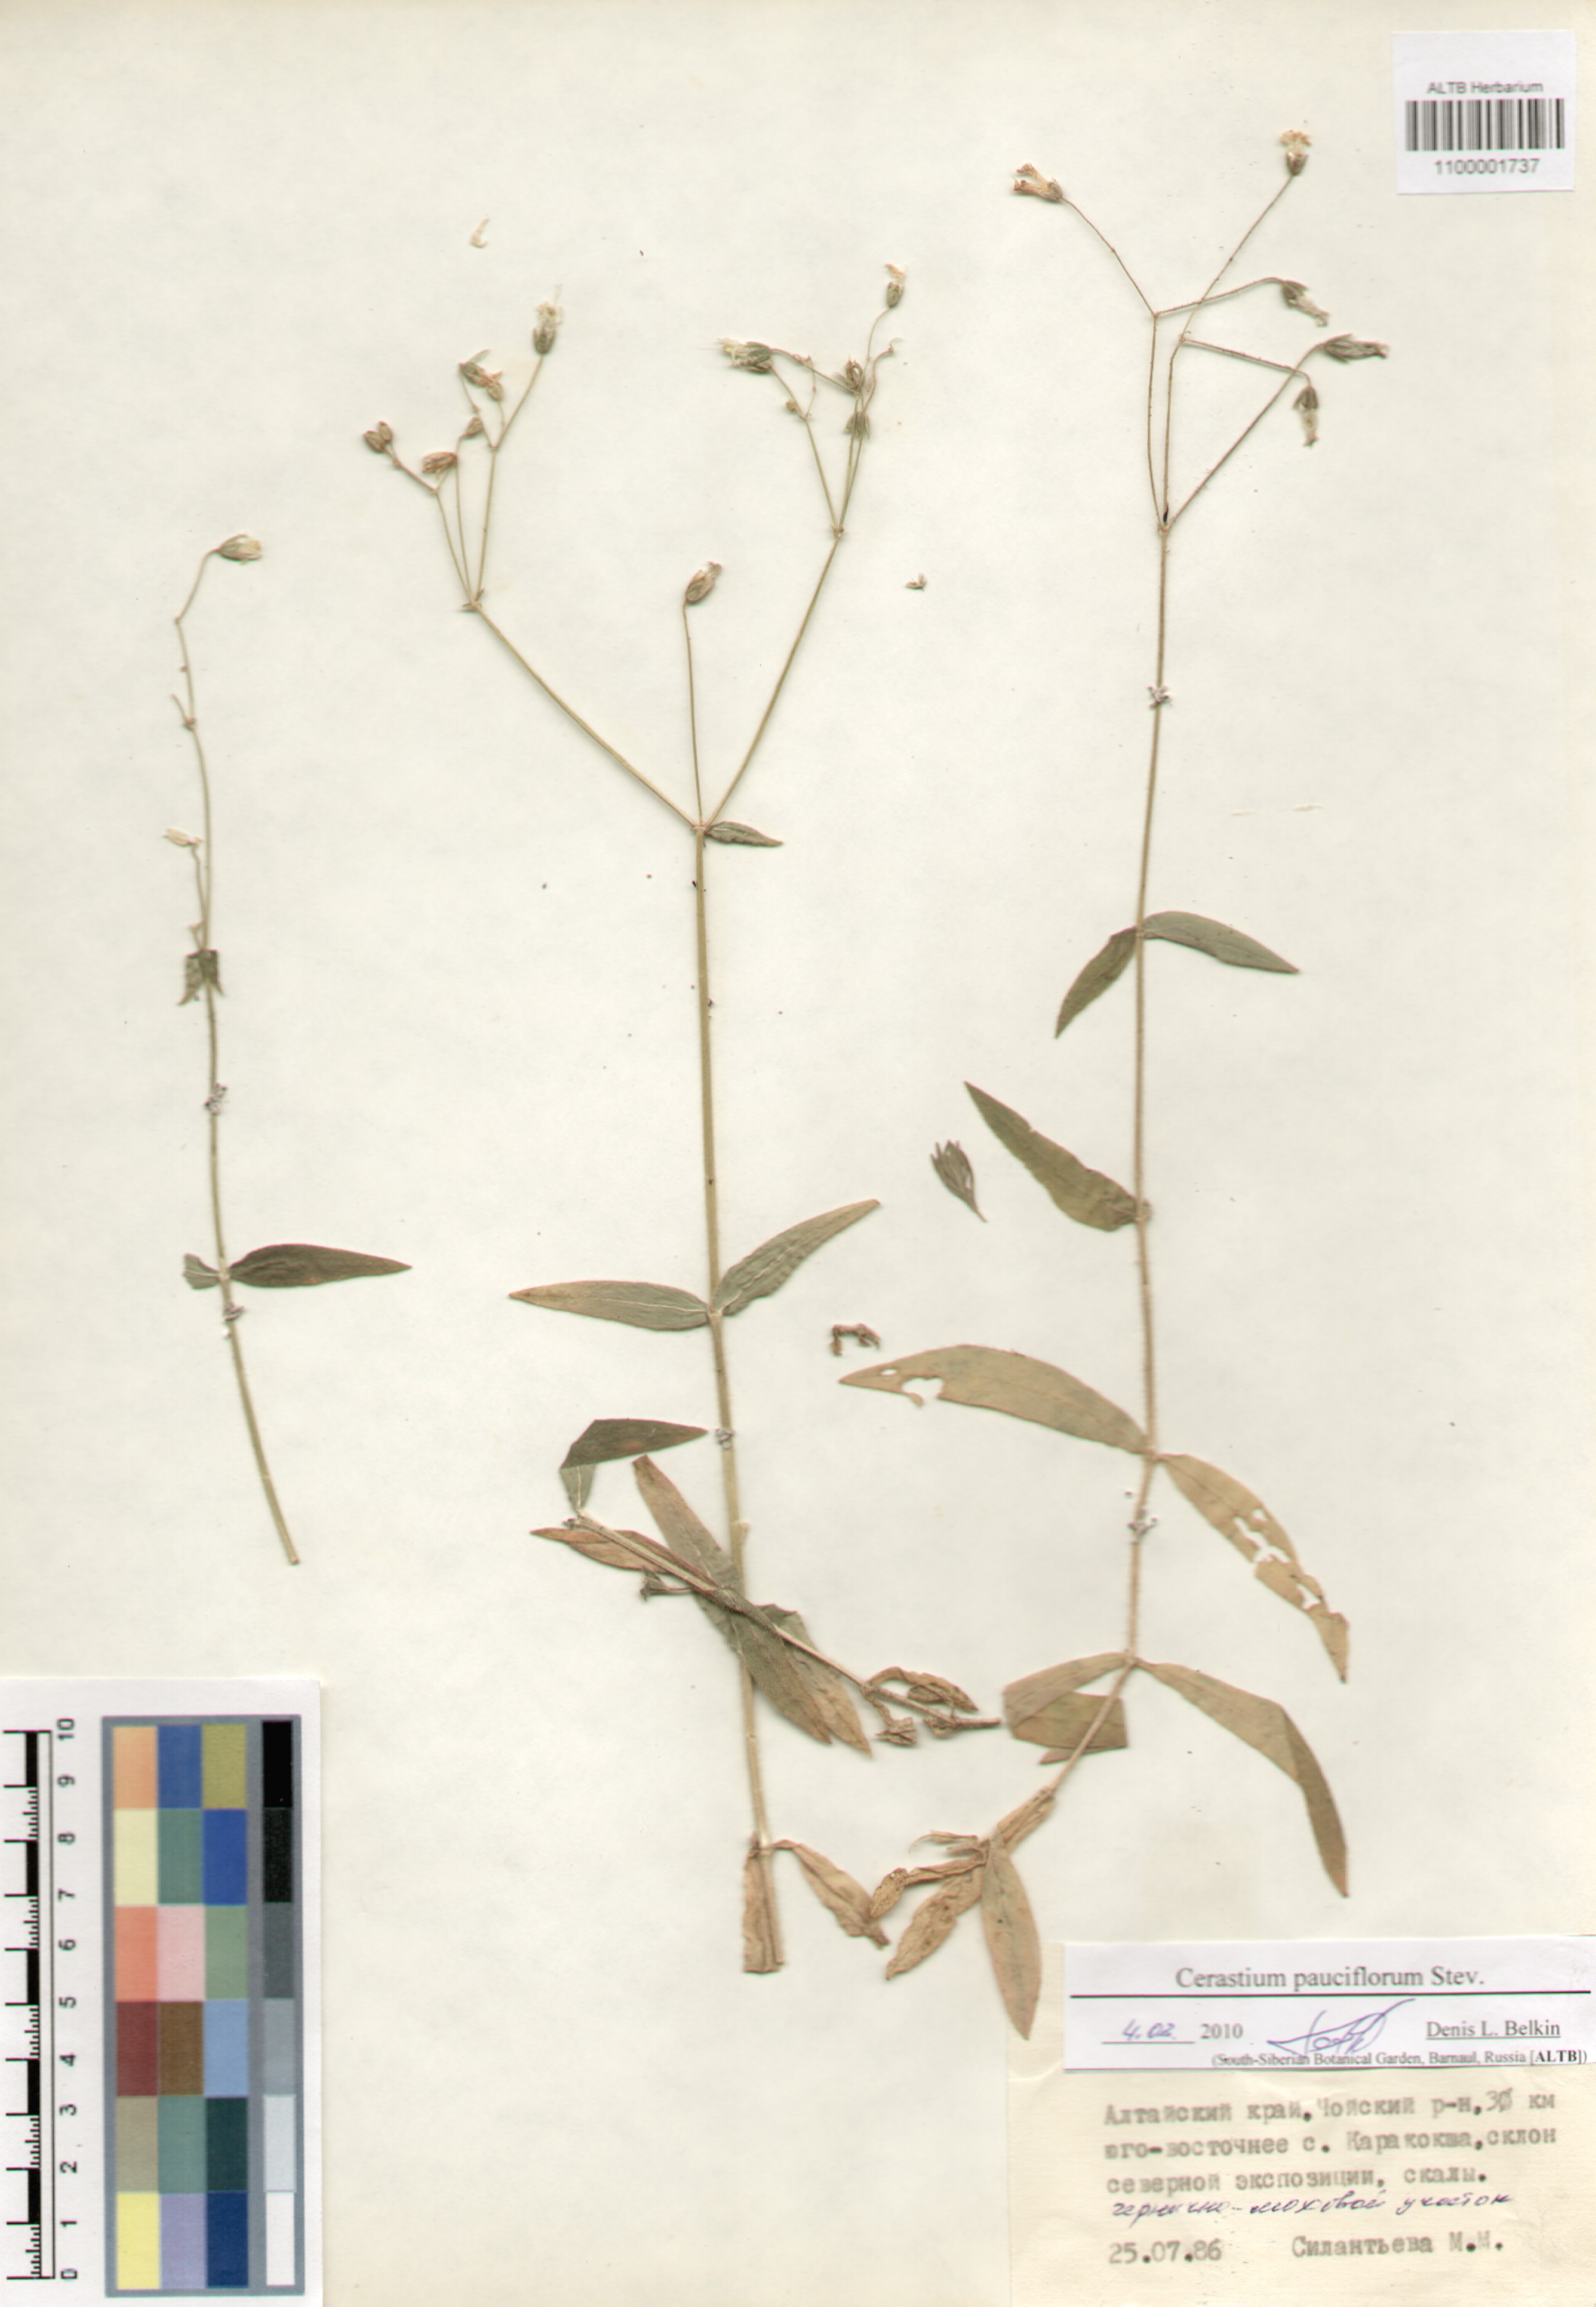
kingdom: Plantae
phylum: Tracheophyta
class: Magnoliopsida
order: Caryophyllales
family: Caryophyllaceae
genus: Cerastium
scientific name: Cerastium pauciflorum
